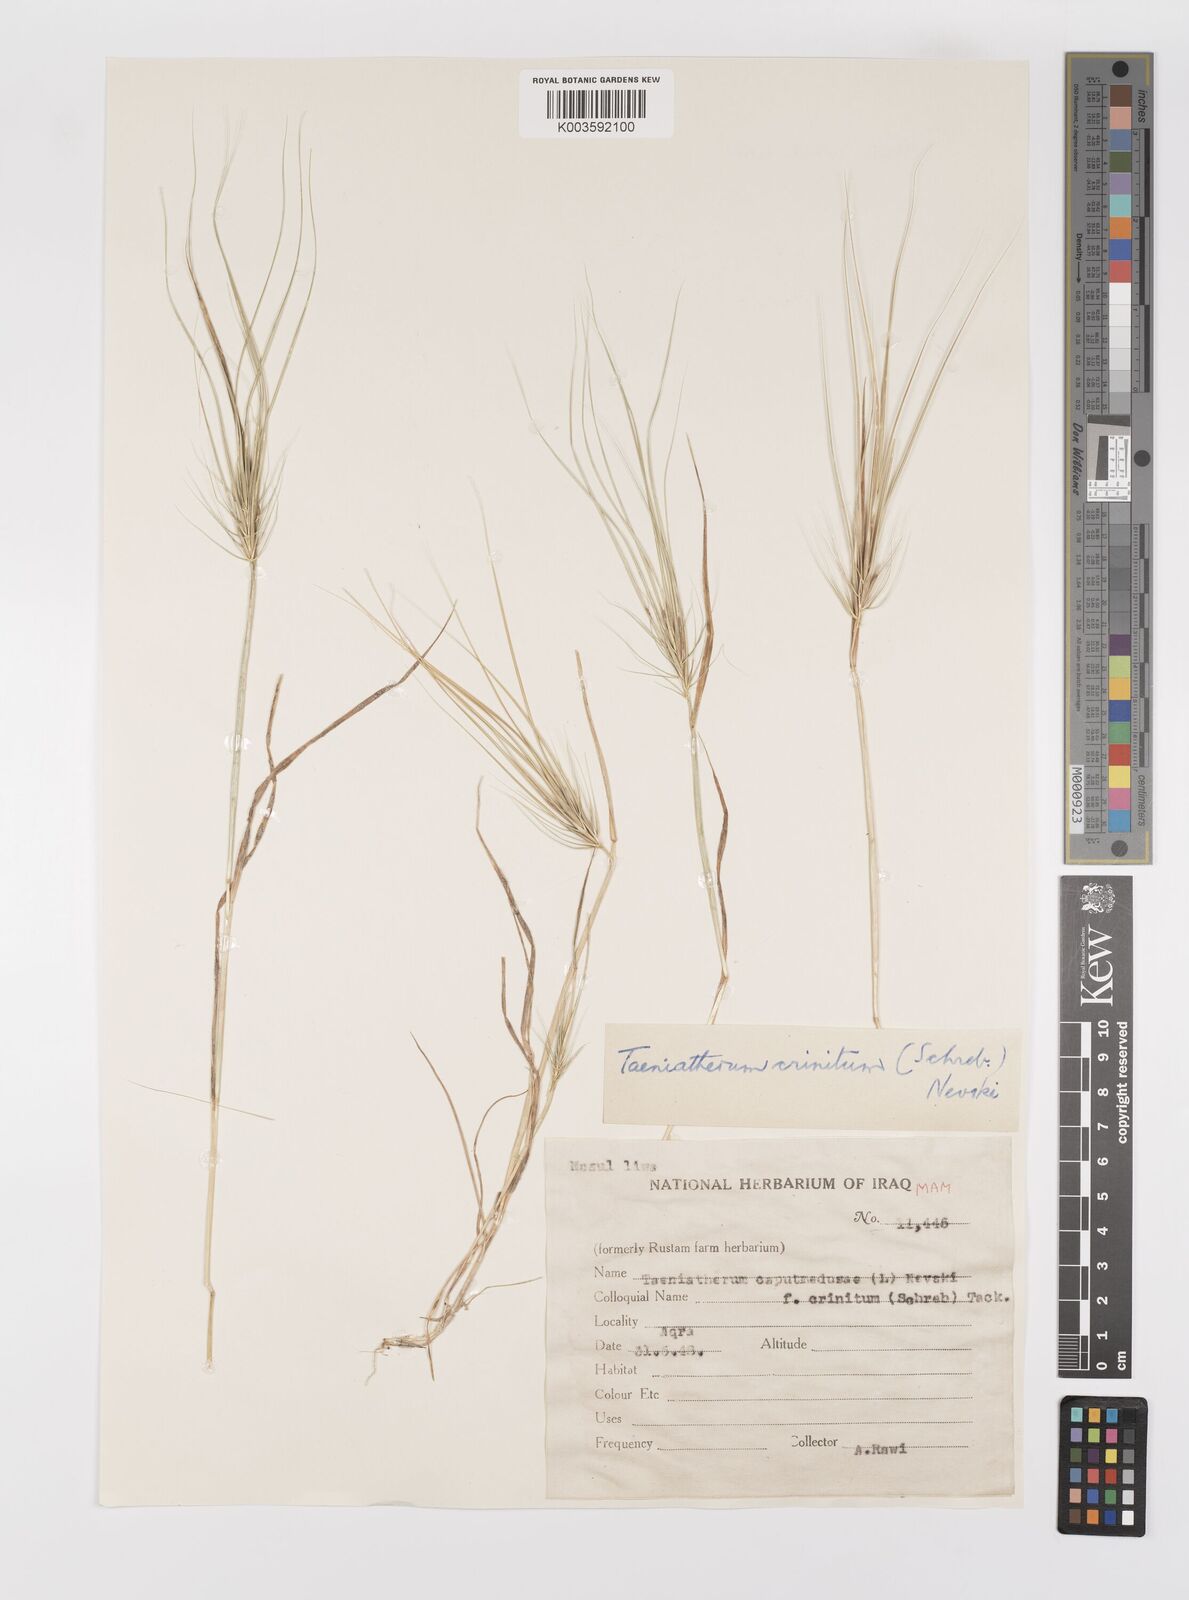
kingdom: Plantae
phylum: Tracheophyta
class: Liliopsida
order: Poales
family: Poaceae
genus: Taeniatherum
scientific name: Taeniatherum caput-medusae
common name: Medusahead
